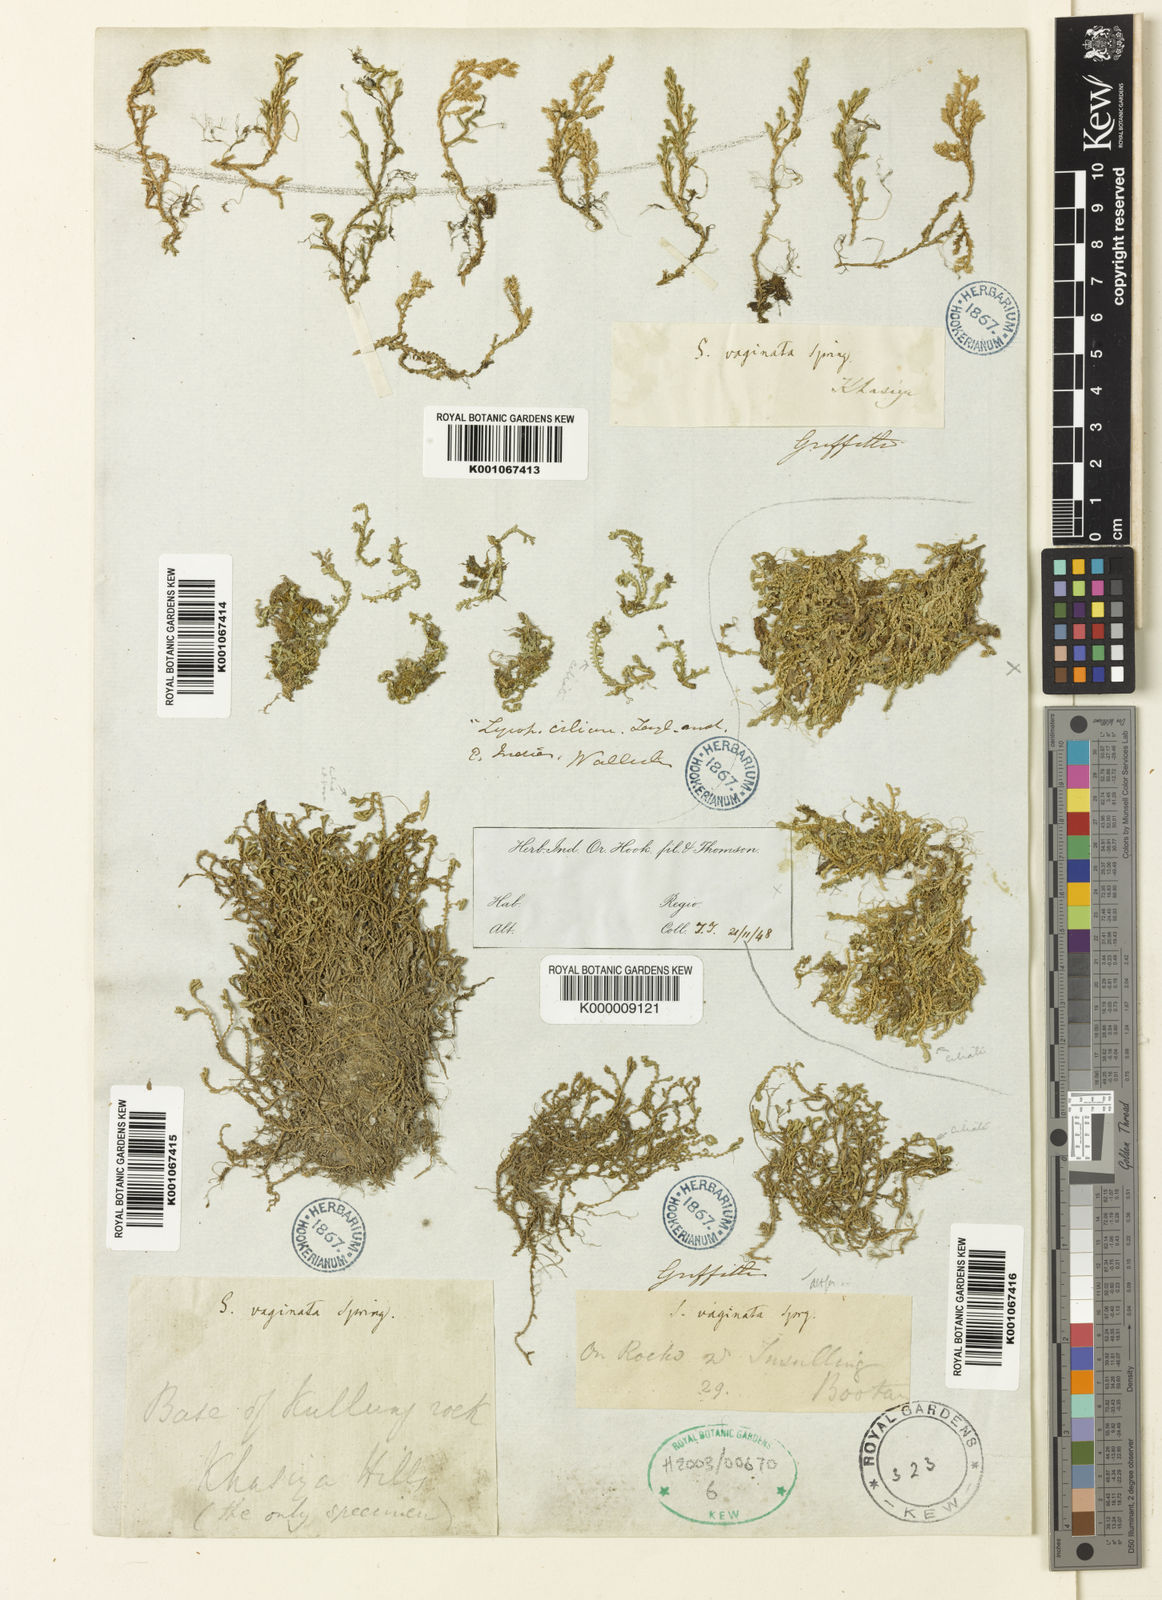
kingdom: Plantae
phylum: Tracheophyta
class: Lycopodiopsida
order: Selaginellales
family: Selaginellaceae
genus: Selaginella
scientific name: Selaginella
